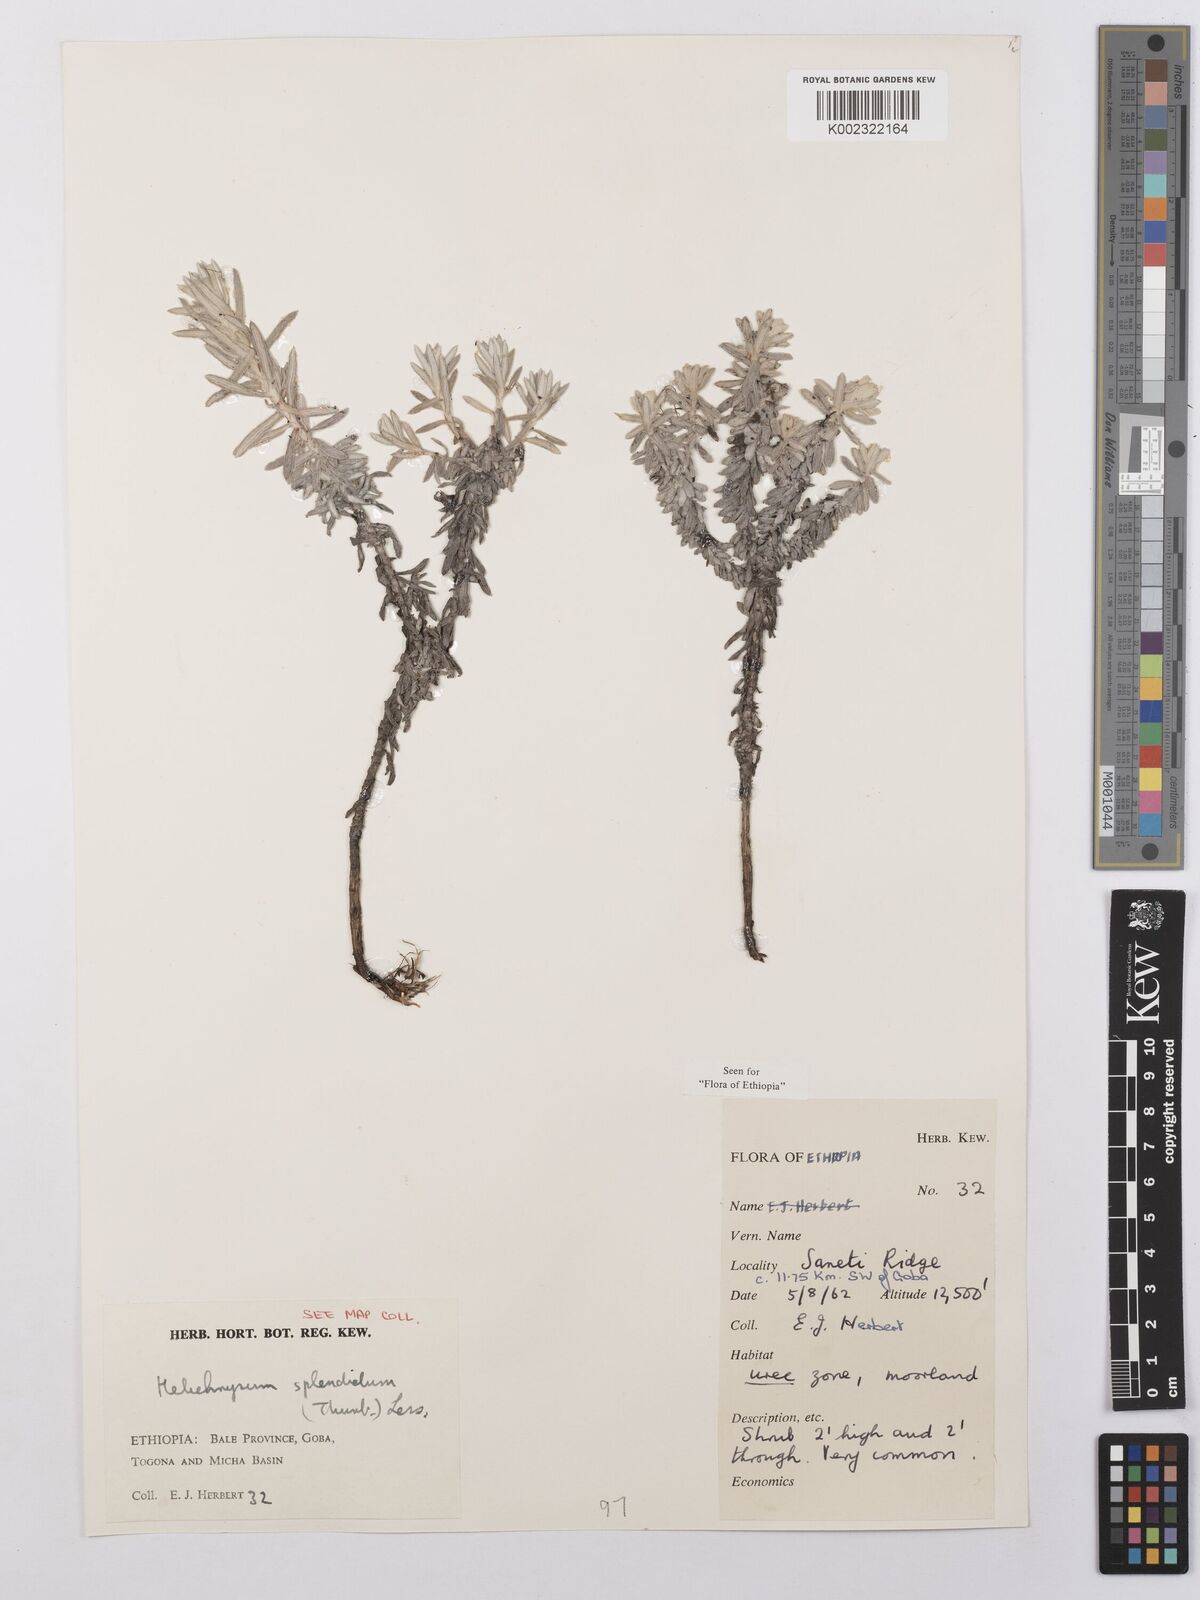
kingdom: Plantae
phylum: Tracheophyta
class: Magnoliopsida
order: Asterales
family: Asteraceae
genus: Helichrysum
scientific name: Helichrysum splendidum
